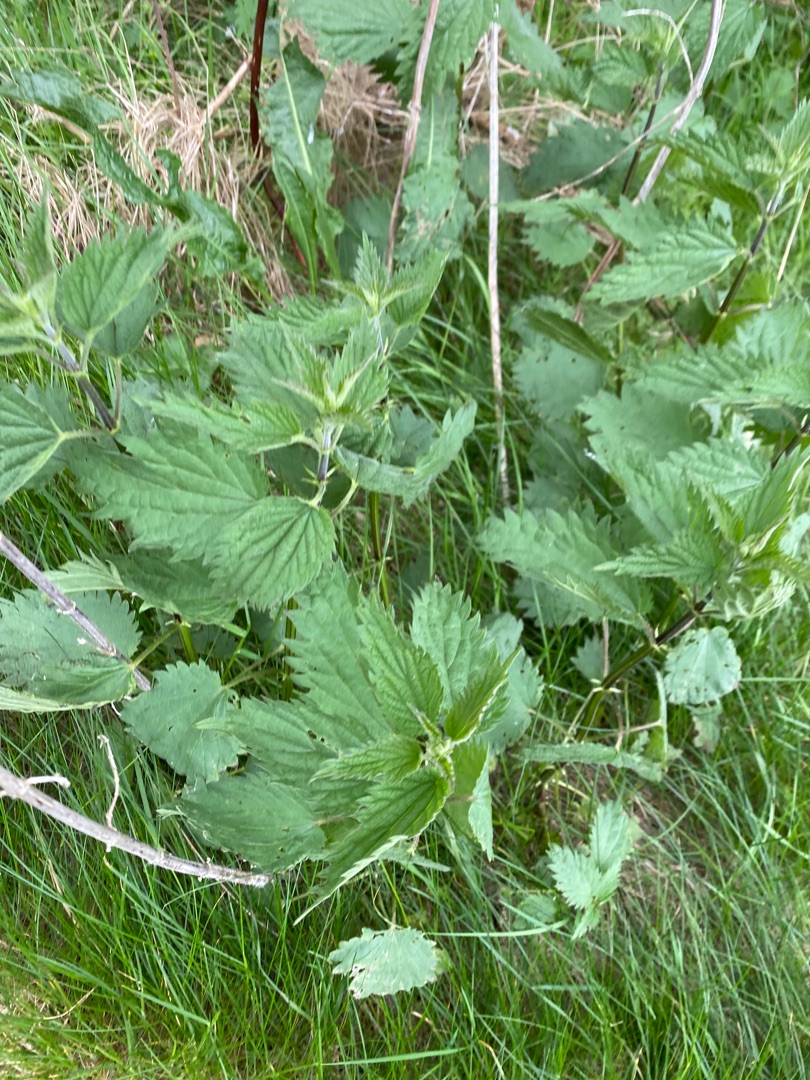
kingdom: Plantae
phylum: Tracheophyta
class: Magnoliopsida
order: Rosales
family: Urticaceae
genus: Urtica
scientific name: Urtica dioica
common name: Stor nælde
